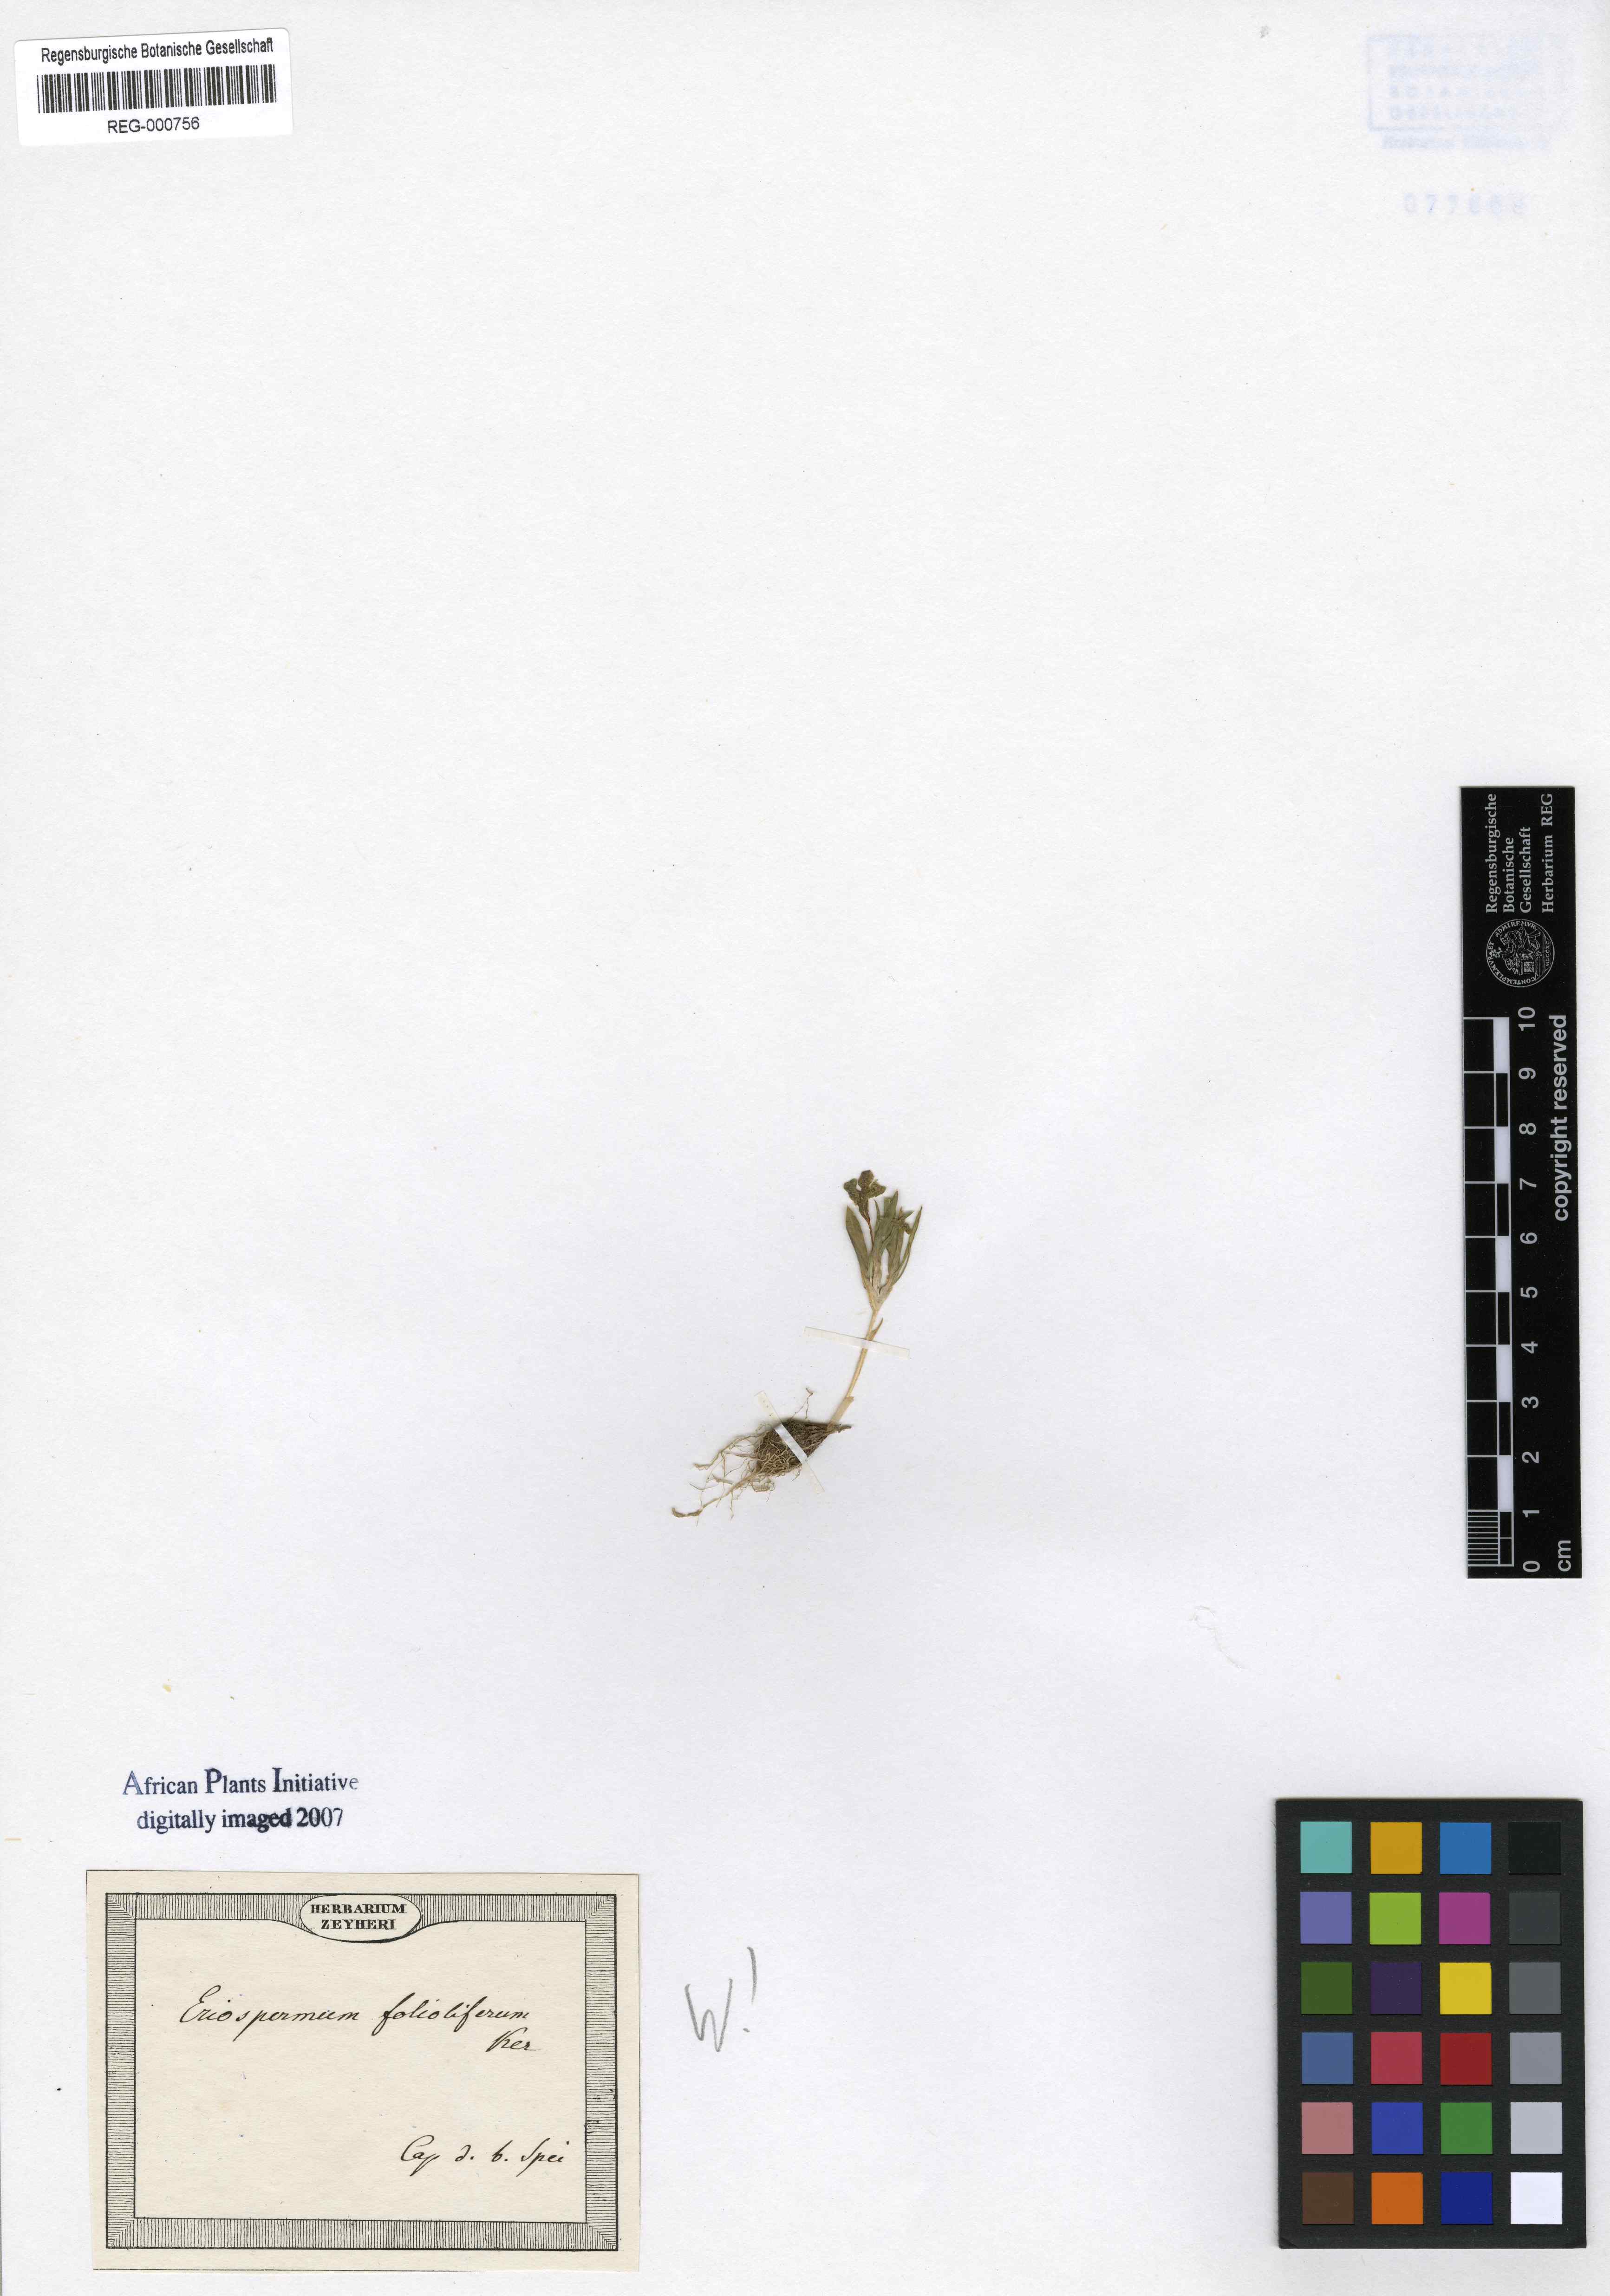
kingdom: Plantae
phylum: Tracheophyta
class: Liliopsida
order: Asparagales
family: Asparagaceae
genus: Eriospermum
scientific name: Eriospermum folioliferum
